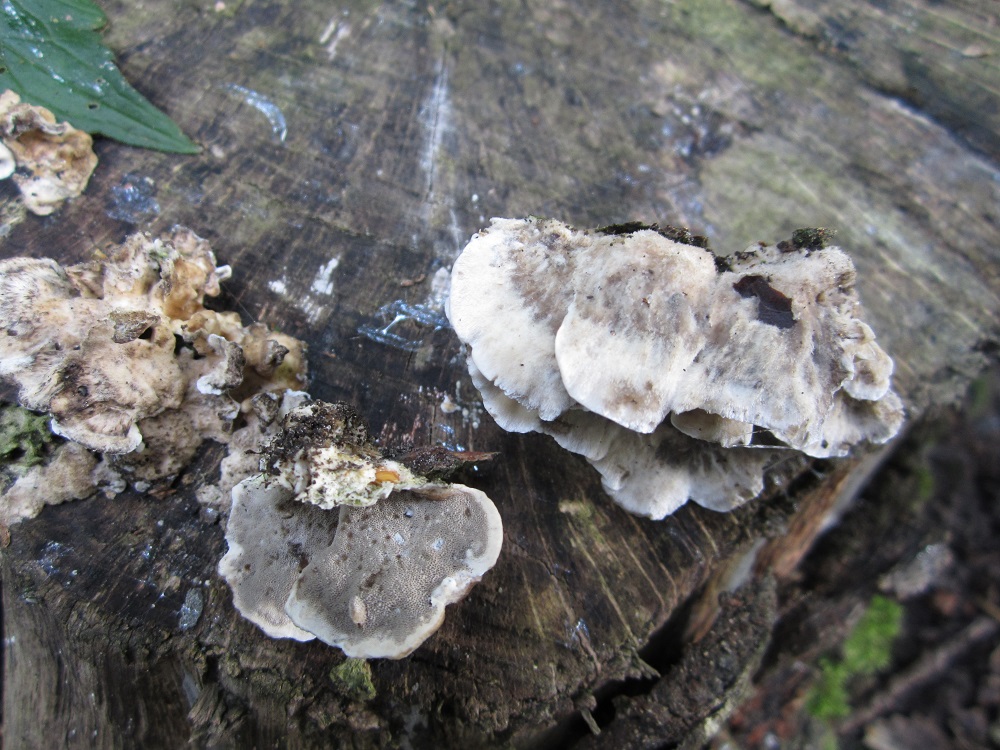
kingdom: Fungi
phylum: Basidiomycota
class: Agaricomycetes
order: Polyporales
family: Phanerochaetaceae
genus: Bjerkandera
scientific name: Bjerkandera adusta
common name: sveden sodporesvamp
